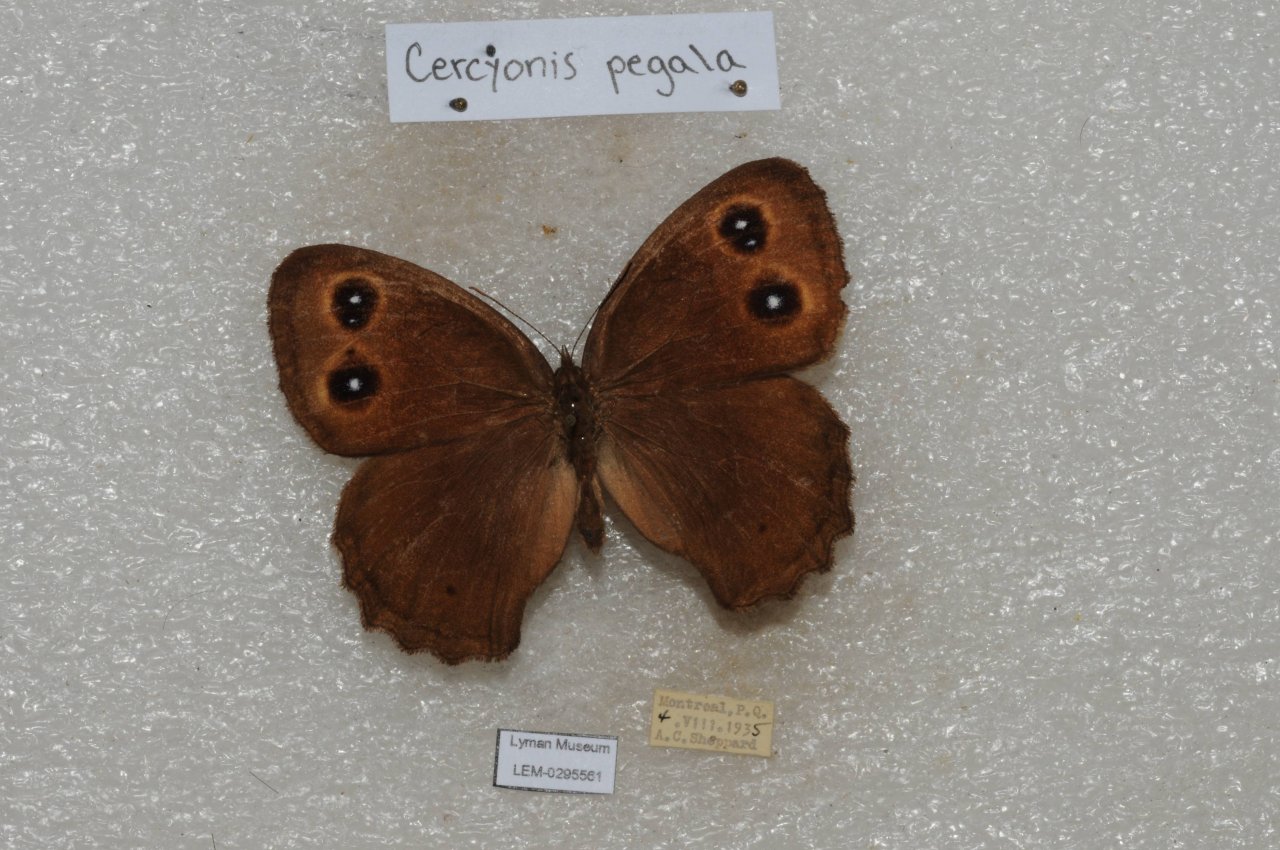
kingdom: Animalia
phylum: Arthropoda
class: Insecta
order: Lepidoptera
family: Nymphalidae
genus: Cercyonis
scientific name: Cercyonis pegala
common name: Common Wood-Nymph
